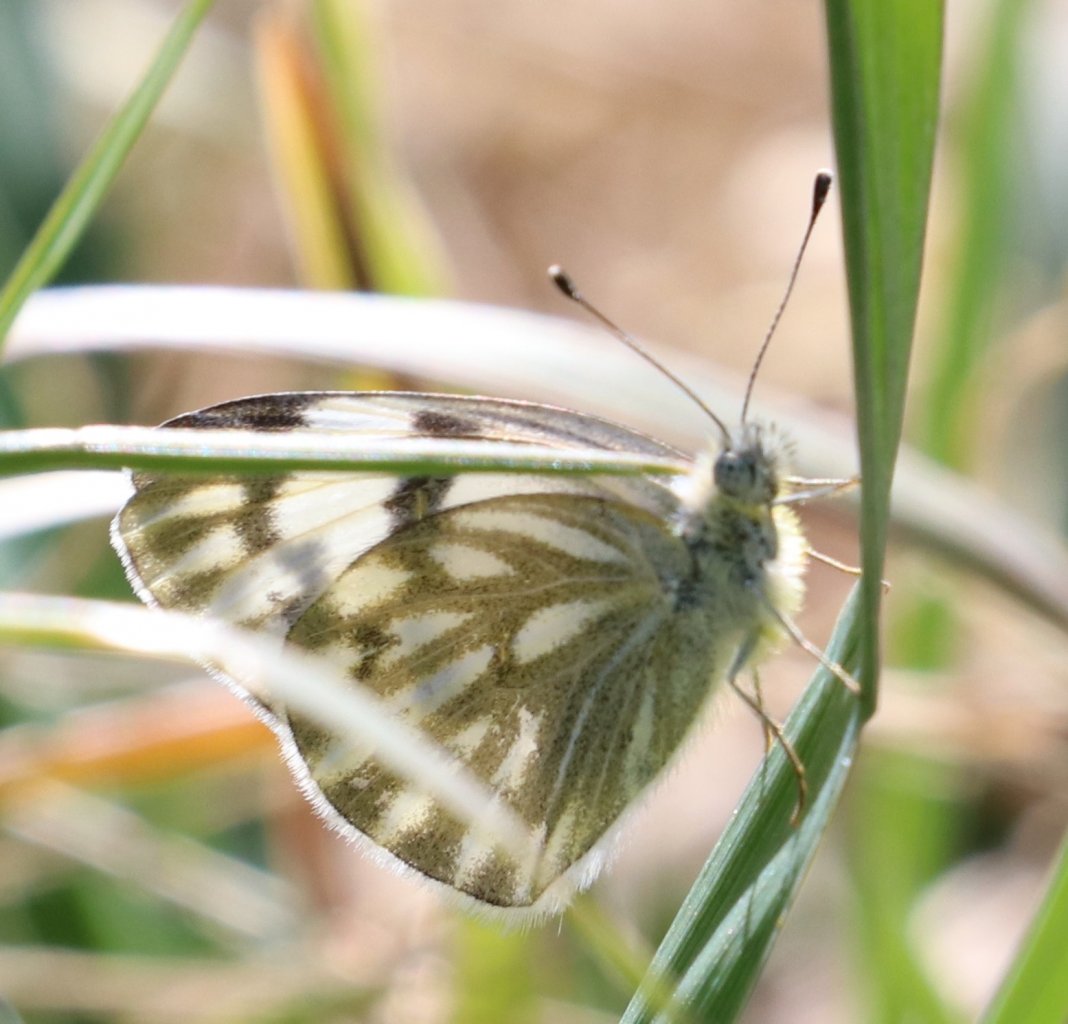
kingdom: Animalia
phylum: Arthropoda
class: Insecta
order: Lepidoptera
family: Pieridae
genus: Pontia
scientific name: Pontia protodice
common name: Checkered White
